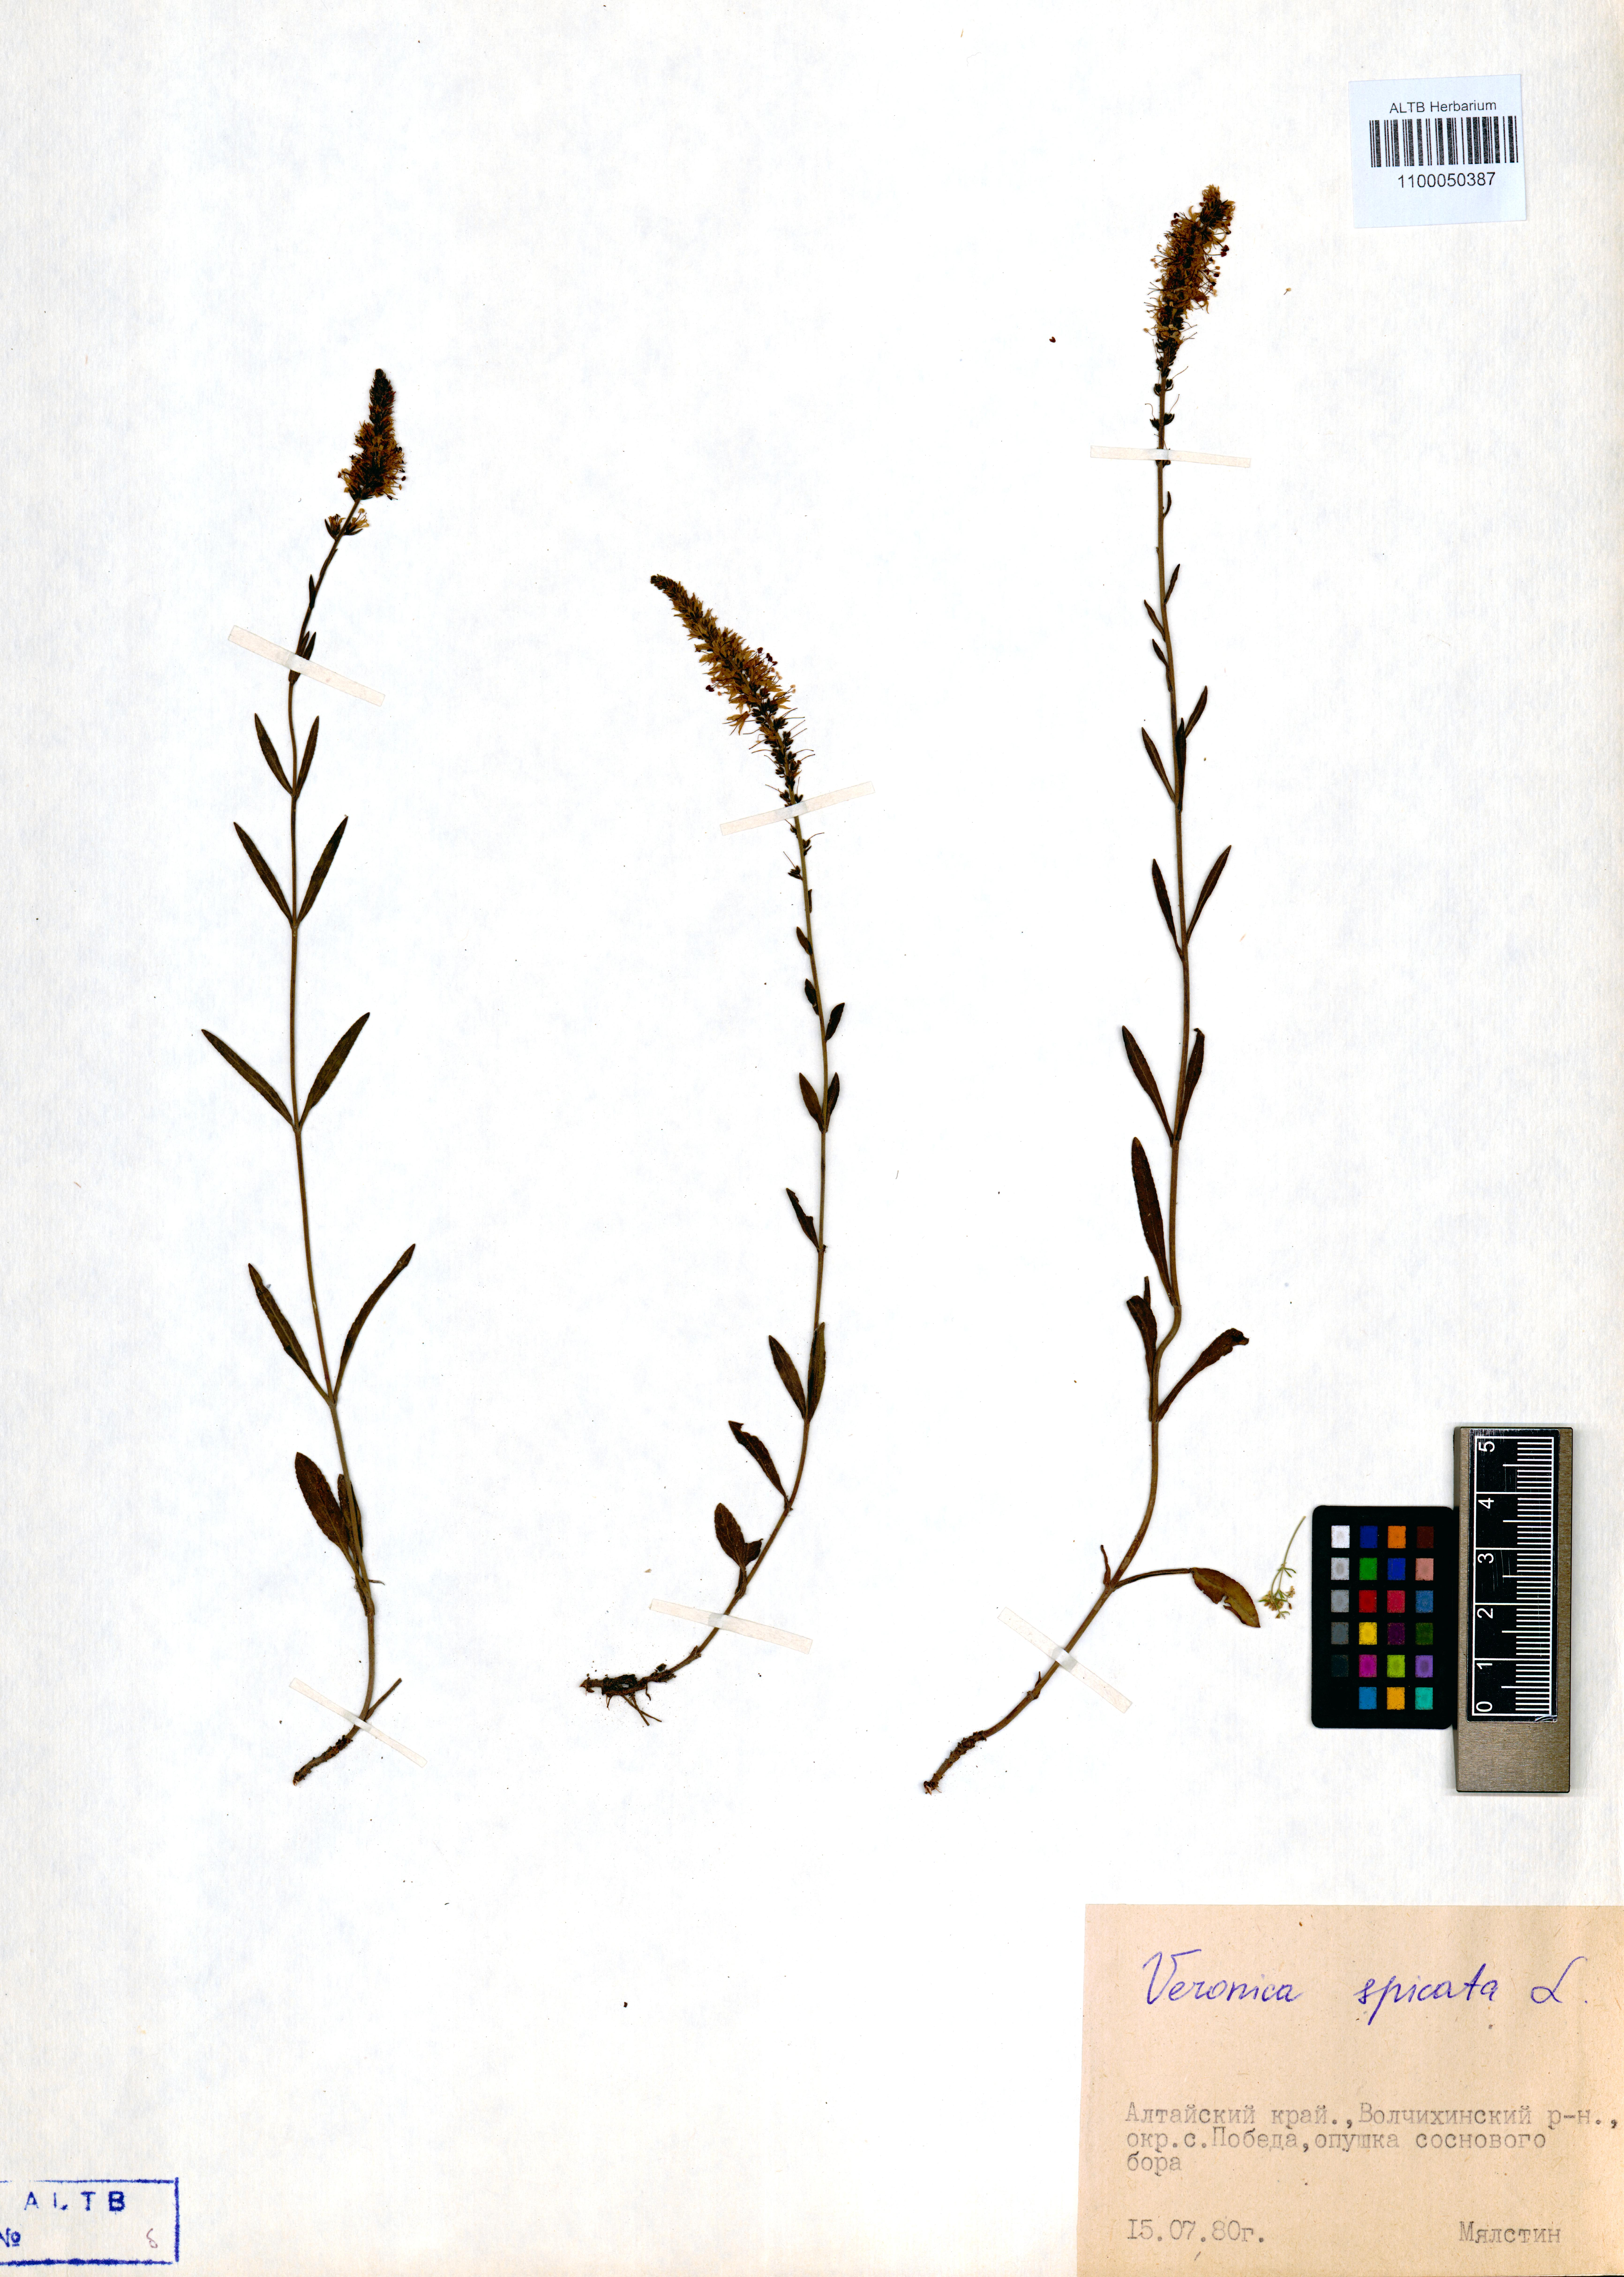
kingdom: Plantae
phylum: Tracheophyta
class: Magnoliopsida
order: Lamiales
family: Plantaginaceae
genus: Veronica
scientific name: Veronica spicata
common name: Spiked speedwell
